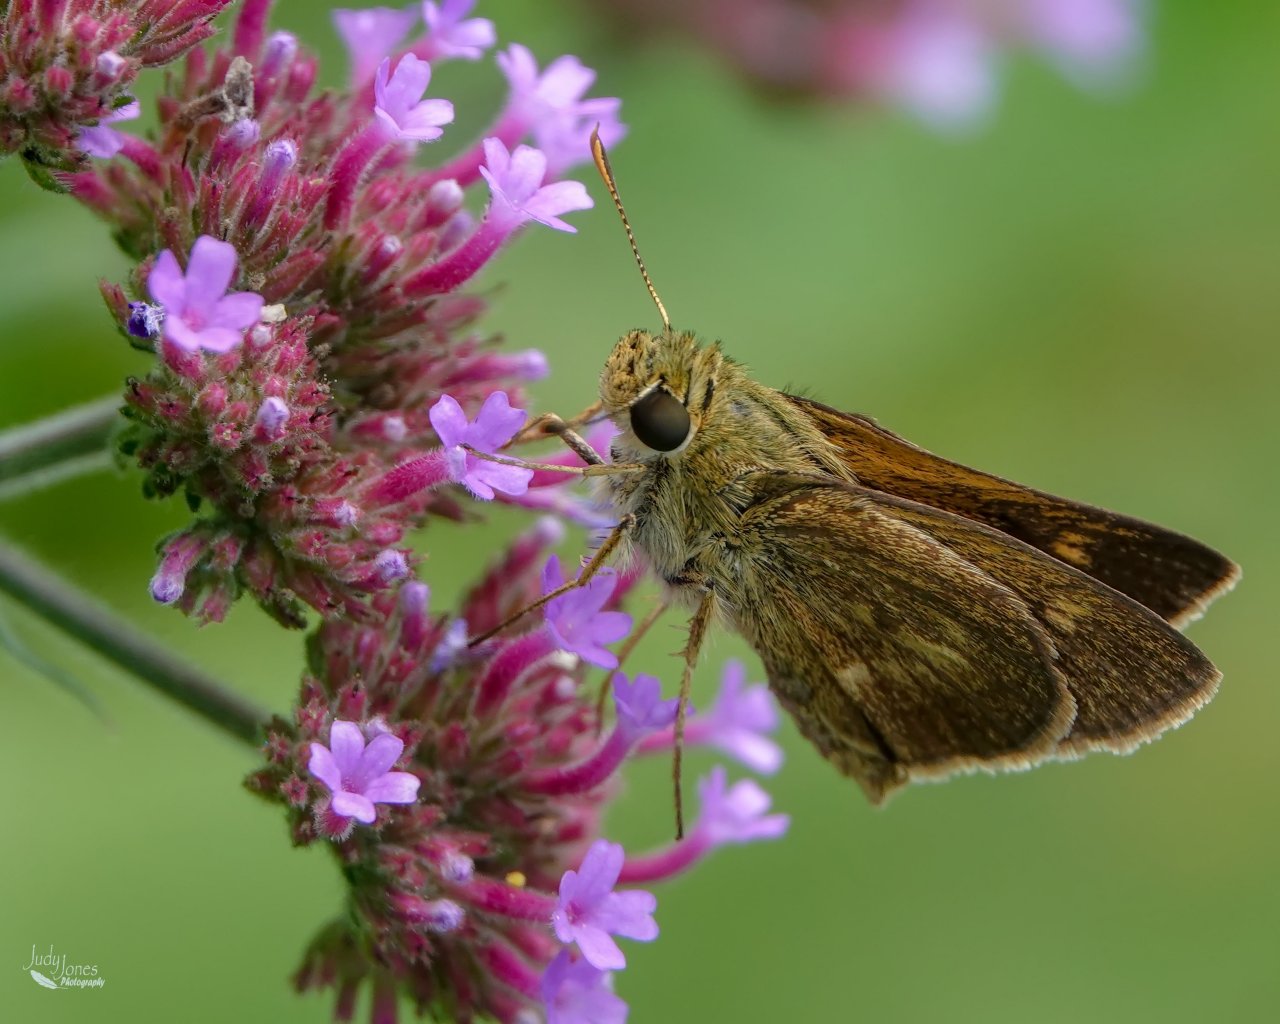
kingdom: Animalia
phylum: Arthropoda
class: Insecta
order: Lepidoptera
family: Hesperiidae
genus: Polites
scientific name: Polites egeremet
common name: Northern Broken-Dash
